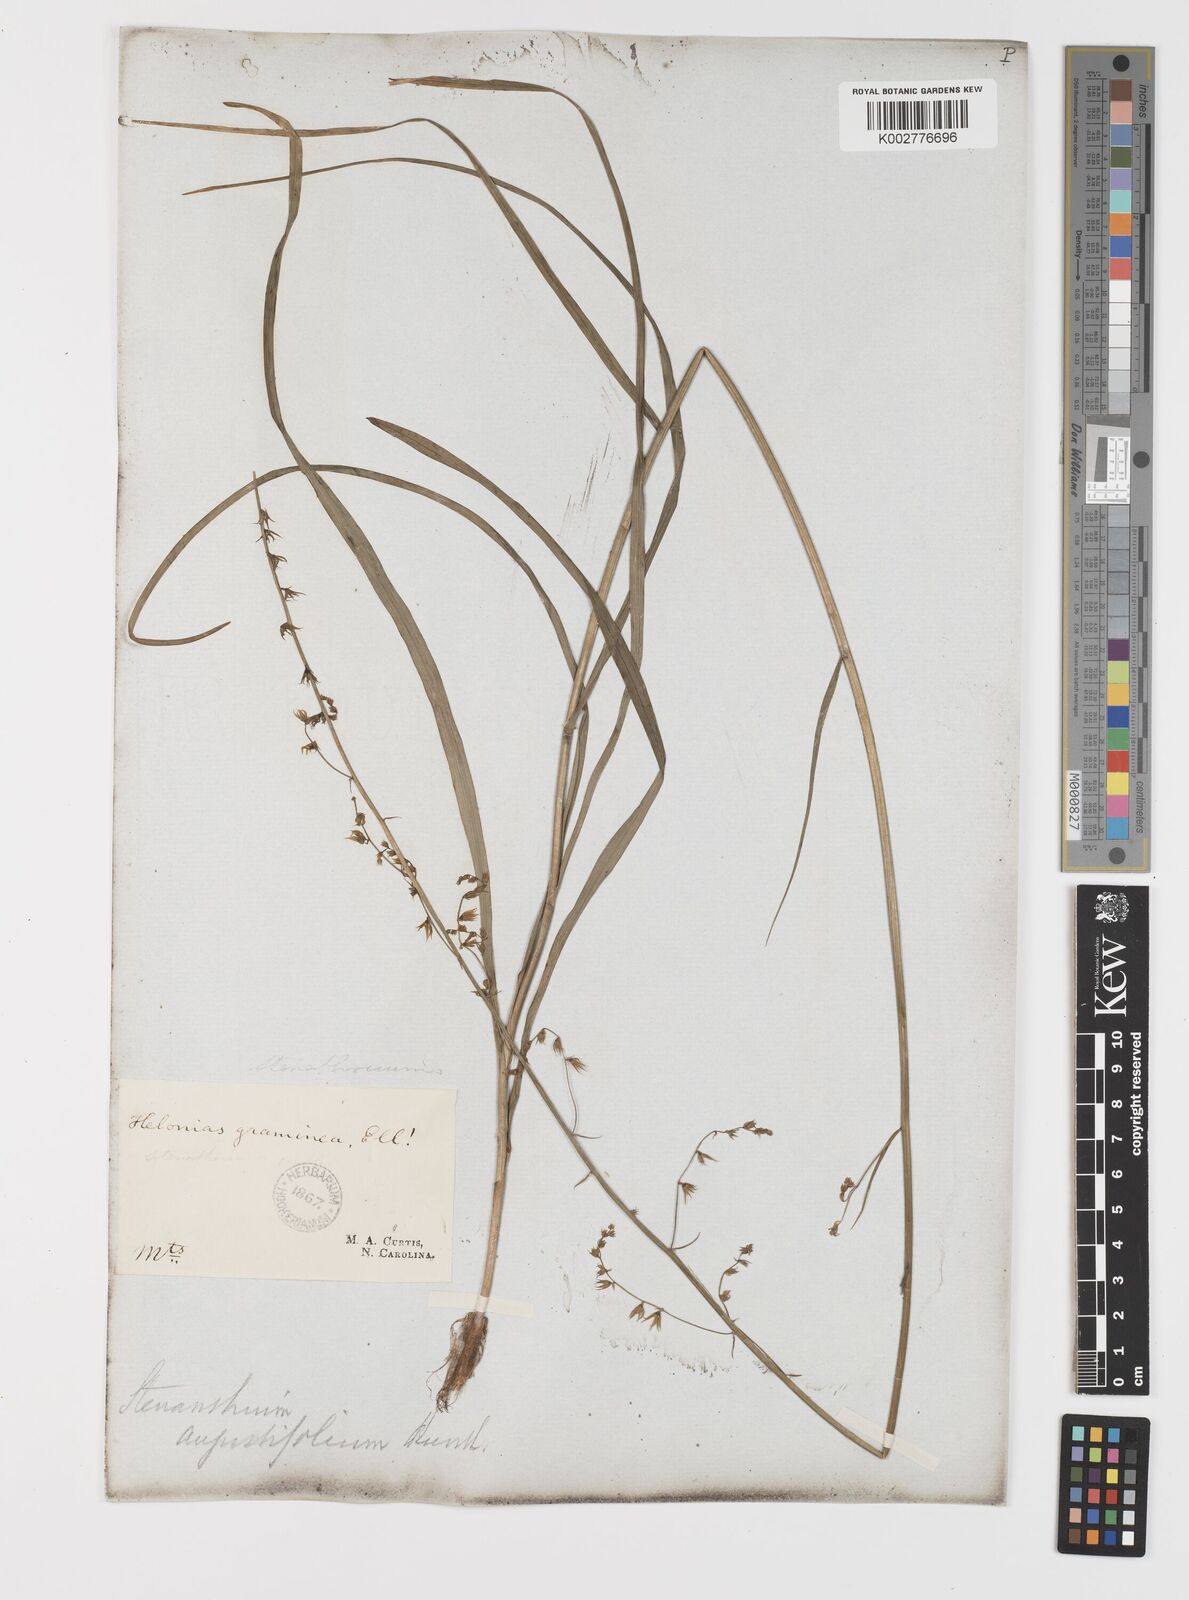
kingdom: Plantae
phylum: Tracheophyta
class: Liliopsida
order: Liliales
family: Melanthiaceae
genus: Stenanthium
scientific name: Stenanthium gramineum
